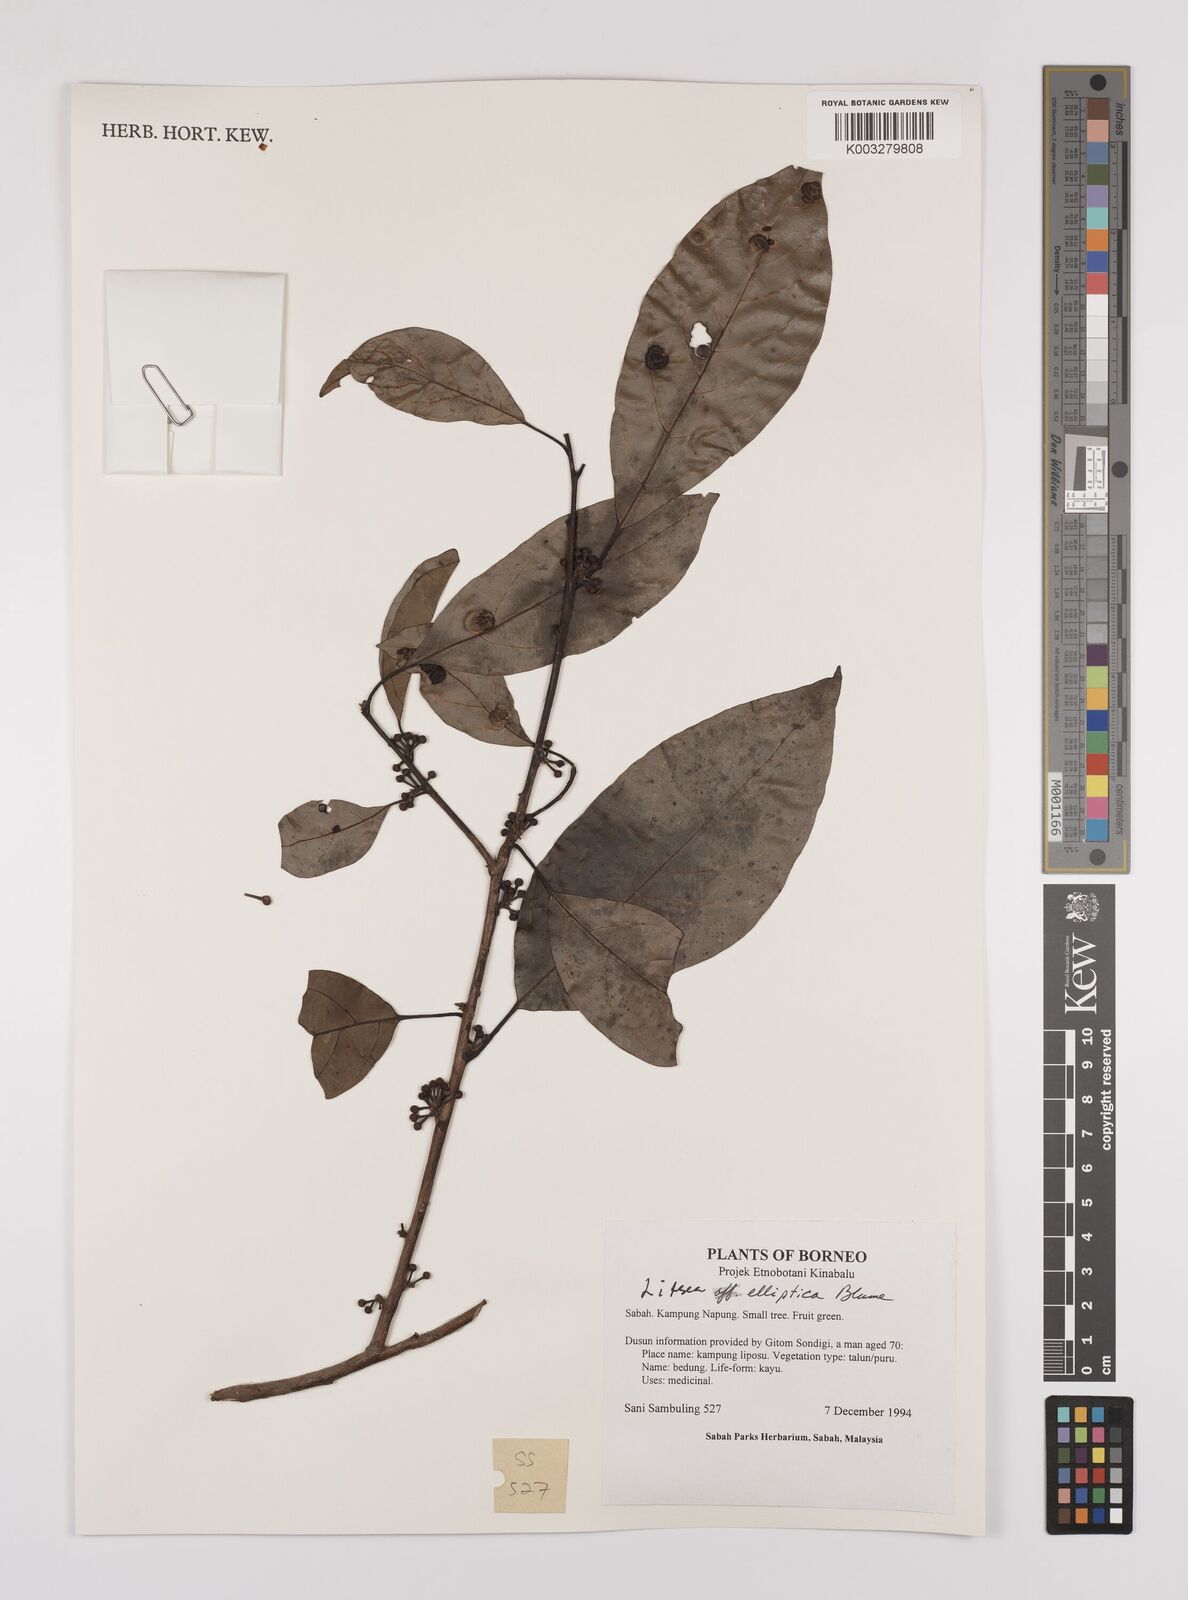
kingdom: Plantae
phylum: Tracheophyta
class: Magnoliopsida
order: Laurales
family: Lauraceae
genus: Litsea
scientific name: Litsea elliptica
